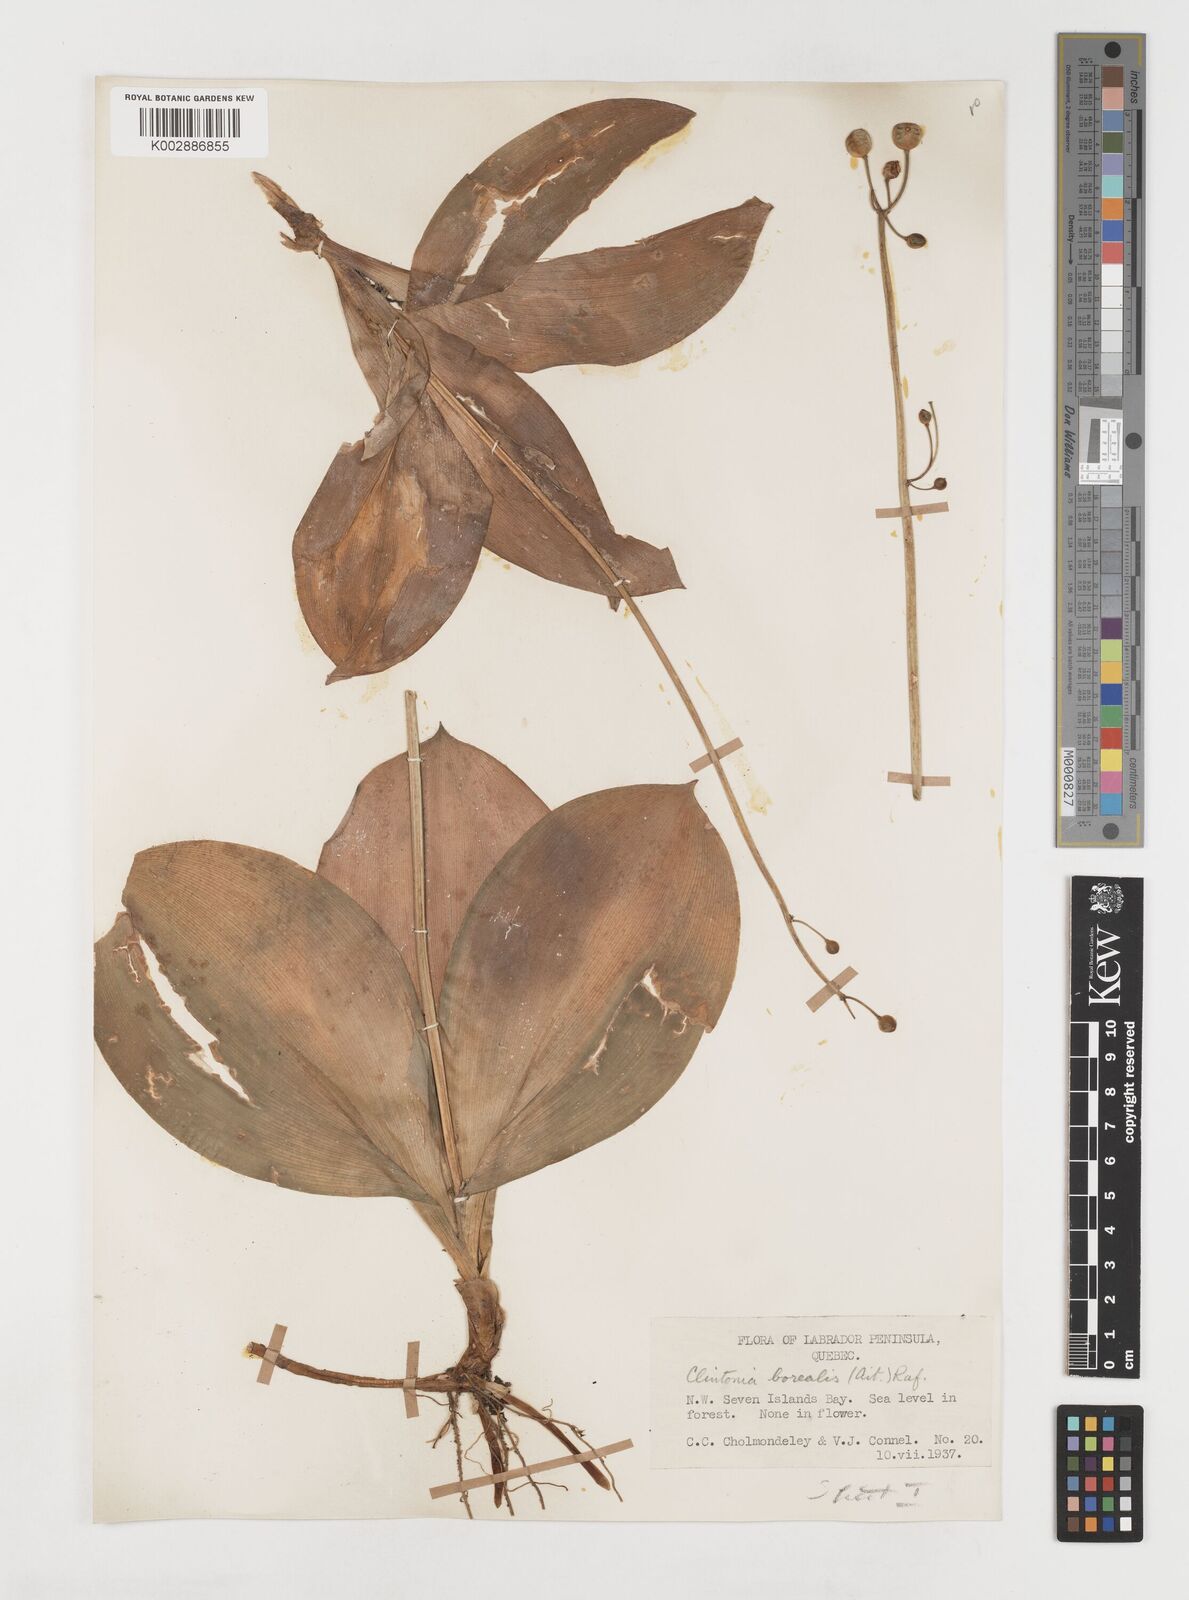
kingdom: Plantae
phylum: Tracheophyta
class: Liliopsida
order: Liliales
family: Liliaceae
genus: Clintonia
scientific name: Clintonia borealis
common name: Yellow clintonia
